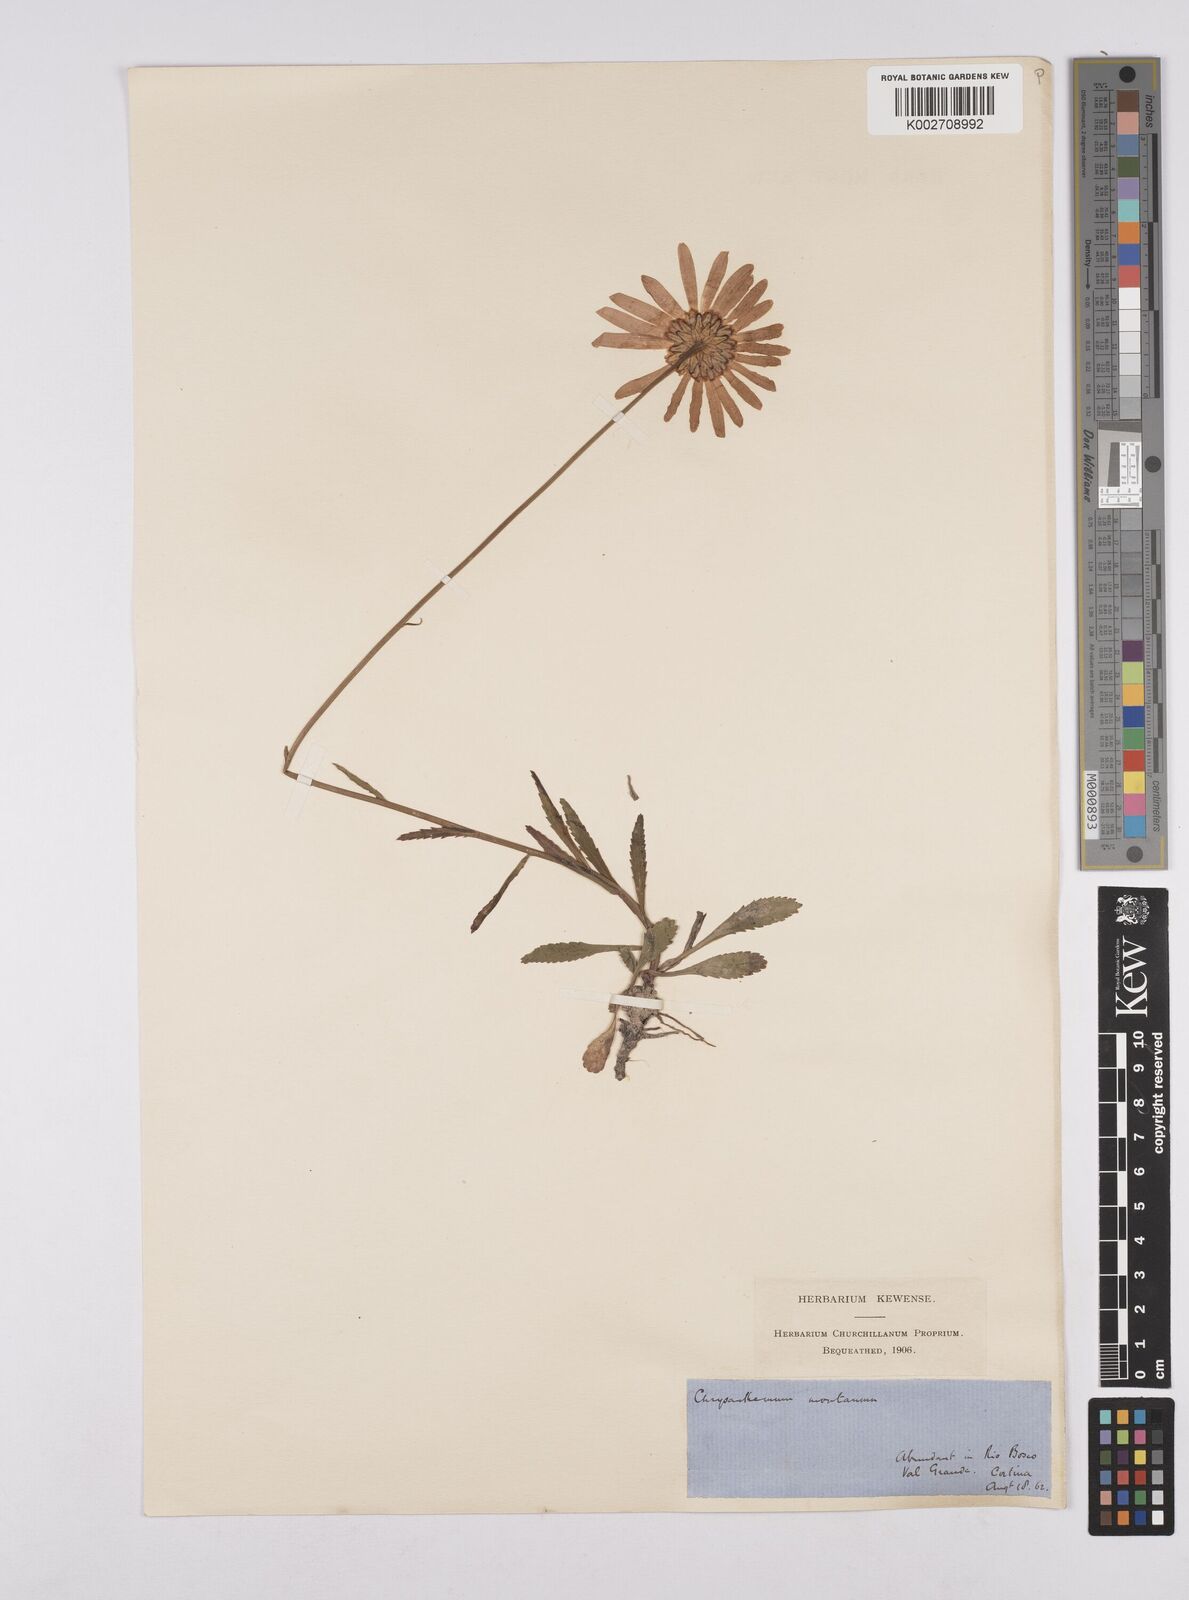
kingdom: Plantae
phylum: Tracheophyta
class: Magnoliopsida
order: Asterales
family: Asteraceae
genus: Leucanthemum
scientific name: Leucanthemum vulgare
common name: Oxeye daisy
